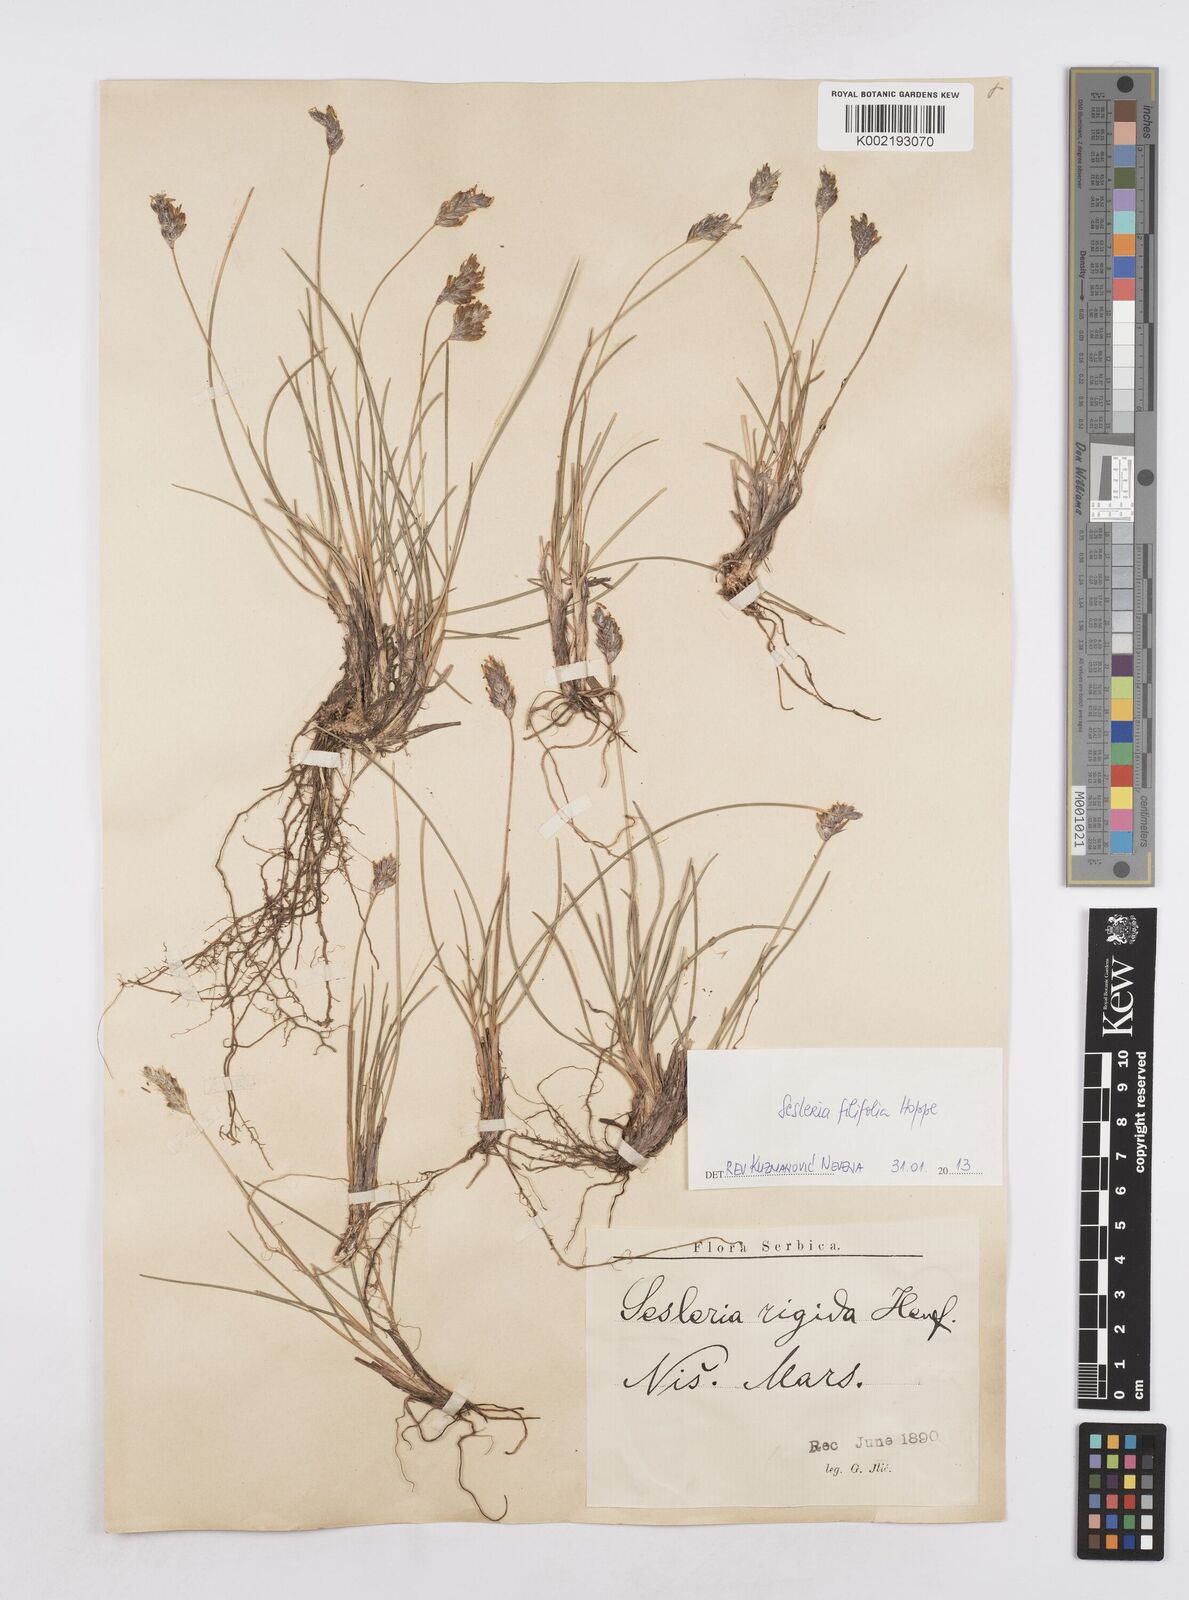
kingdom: Plantae
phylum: Tracheophyta
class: Liliopsida
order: Poales
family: Poaceae
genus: Sesleria
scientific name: Sesleria rigida
